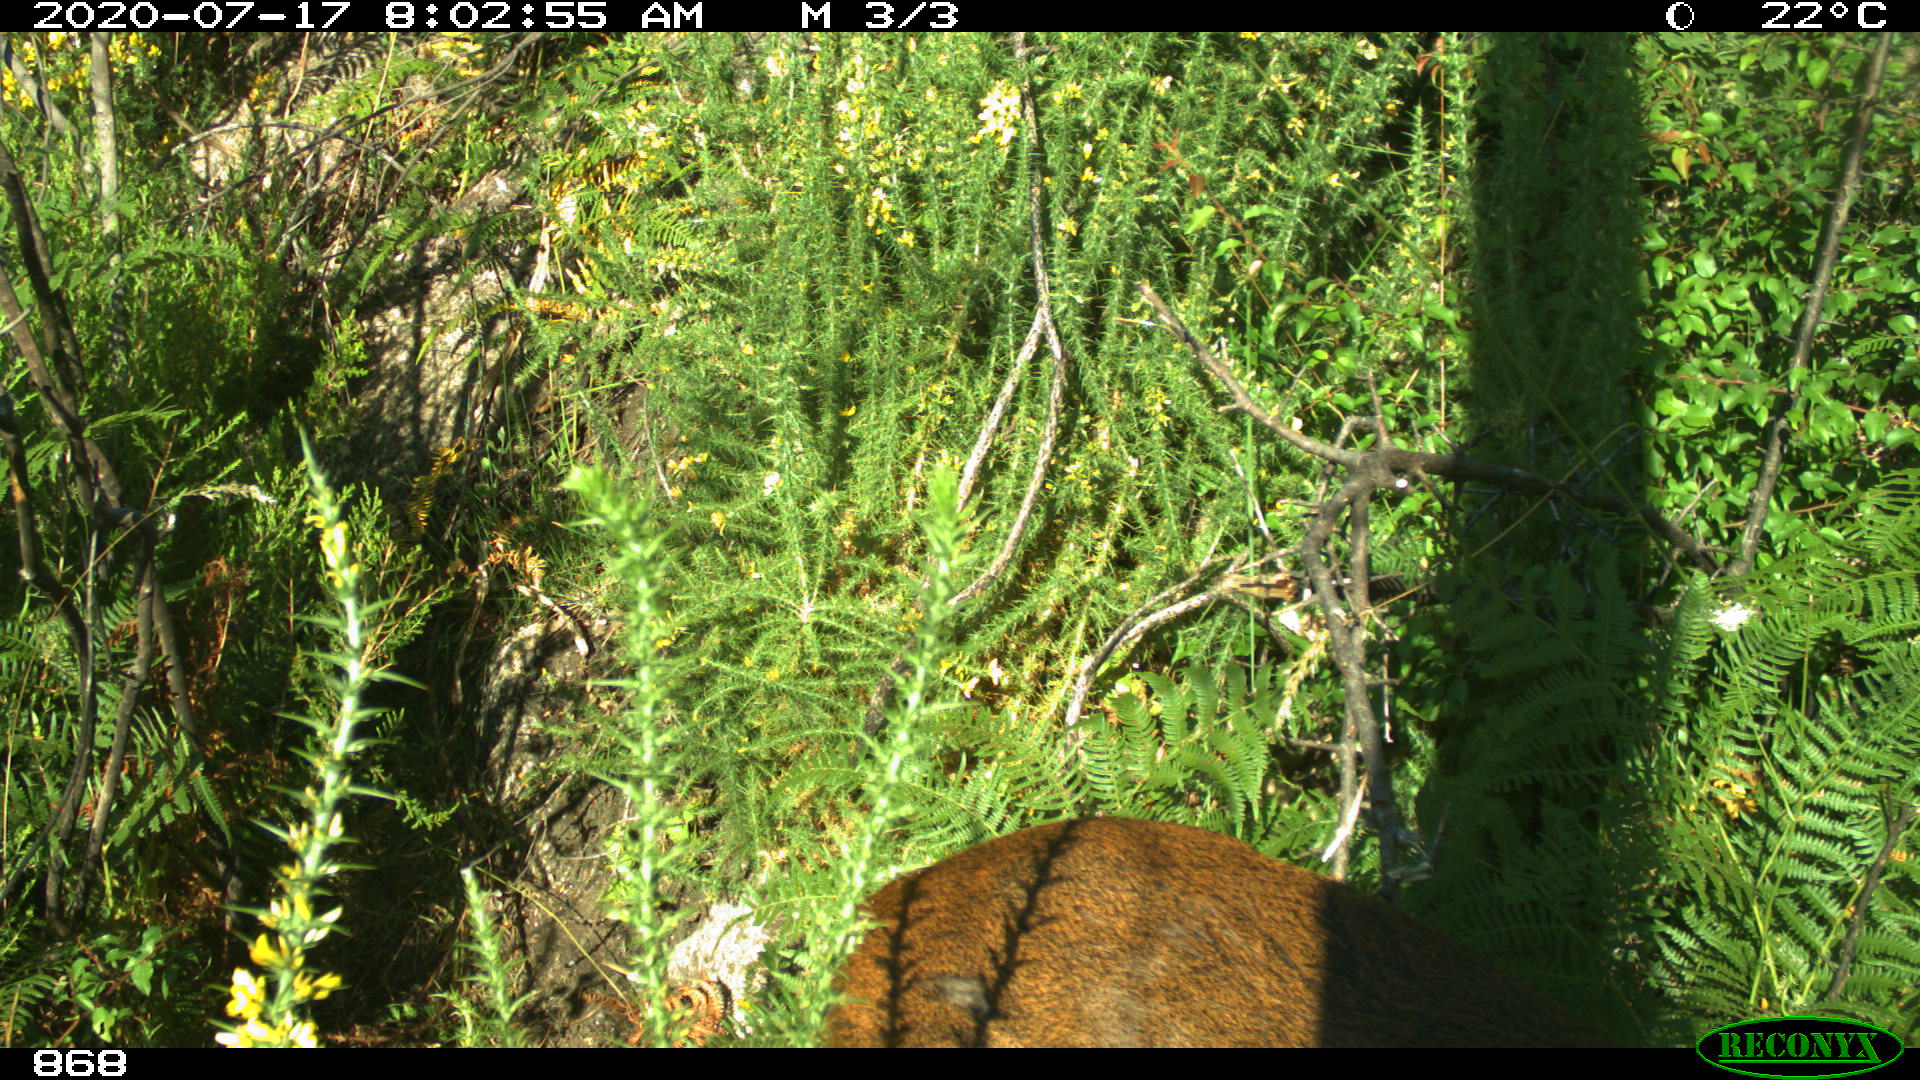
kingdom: Animalia
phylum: Chordata
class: Mammalia
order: Artiodactyla
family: Cervidae
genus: Capreolus
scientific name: Capreolus capreolus
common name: Western roe deer
